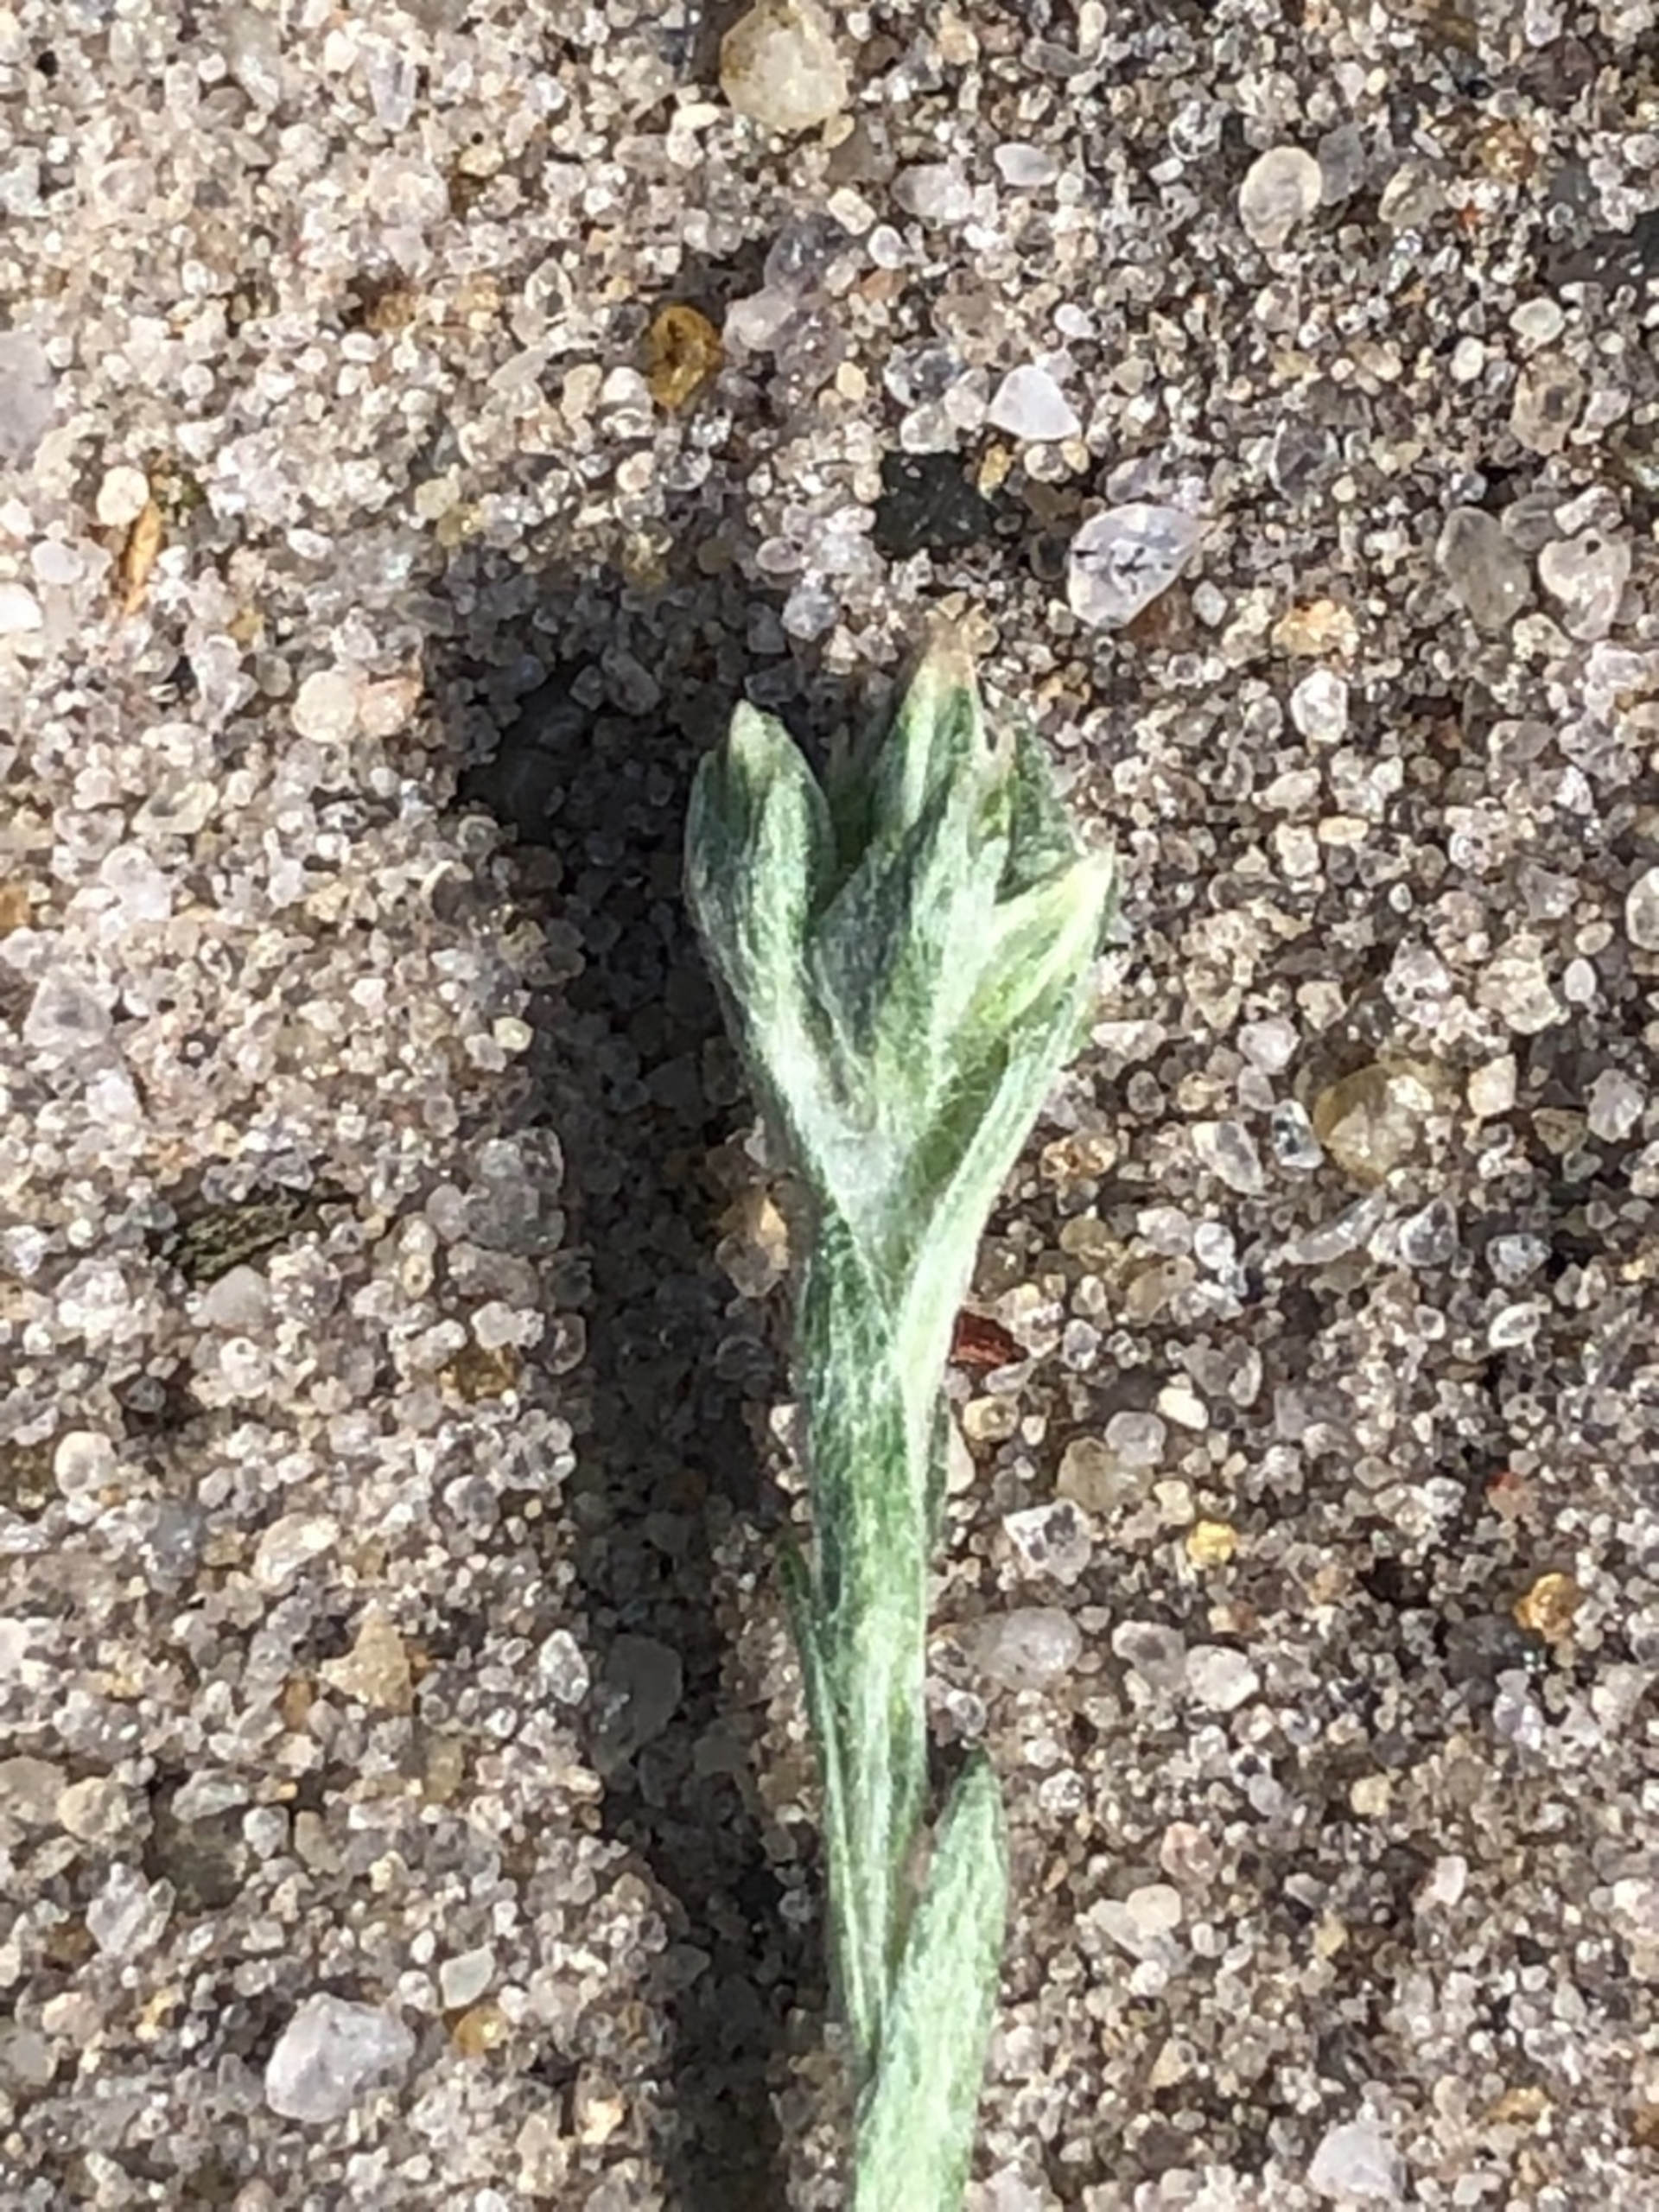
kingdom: Plantae
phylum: Tracheophyta
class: Magnoliopsida
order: Asterales
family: Asteraceae
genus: Filago
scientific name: Filago
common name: Museurt (Filago-slægten)
